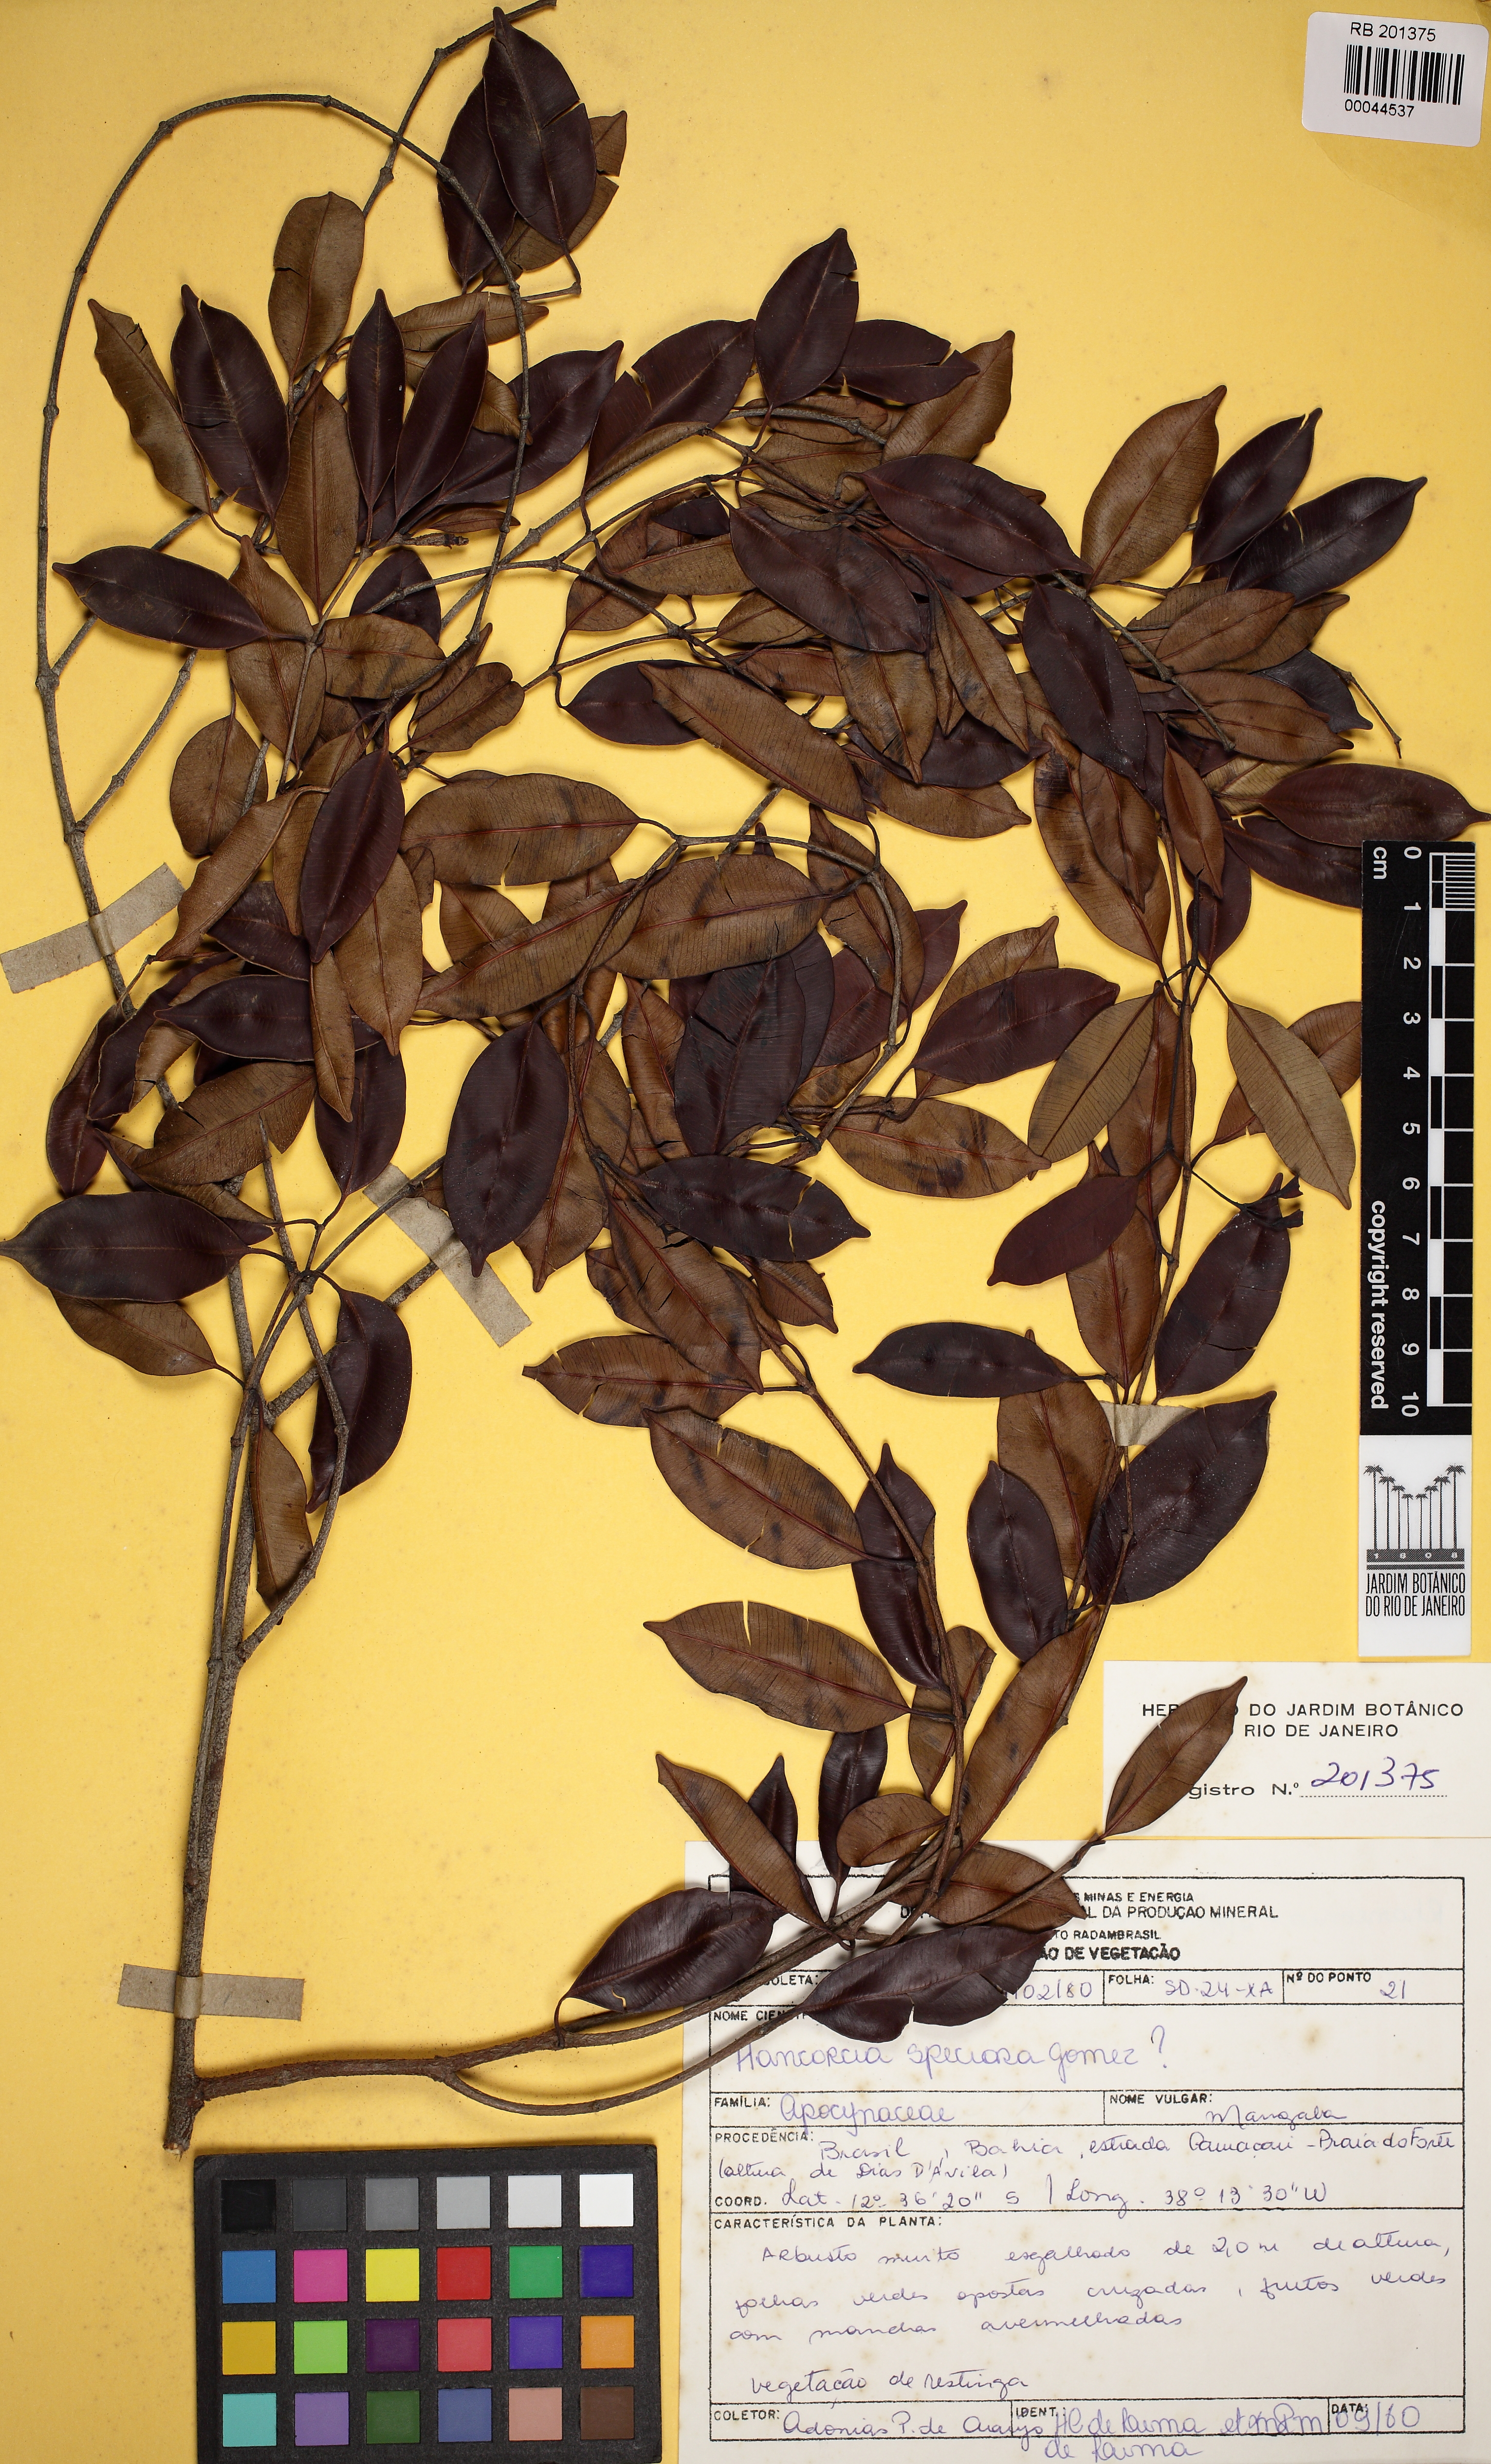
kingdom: Plantae
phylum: Tracheophyta
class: Magnoliopsida
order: Gentianales
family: Apocynaceae
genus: Hancornia
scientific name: Hancornia speciosa
